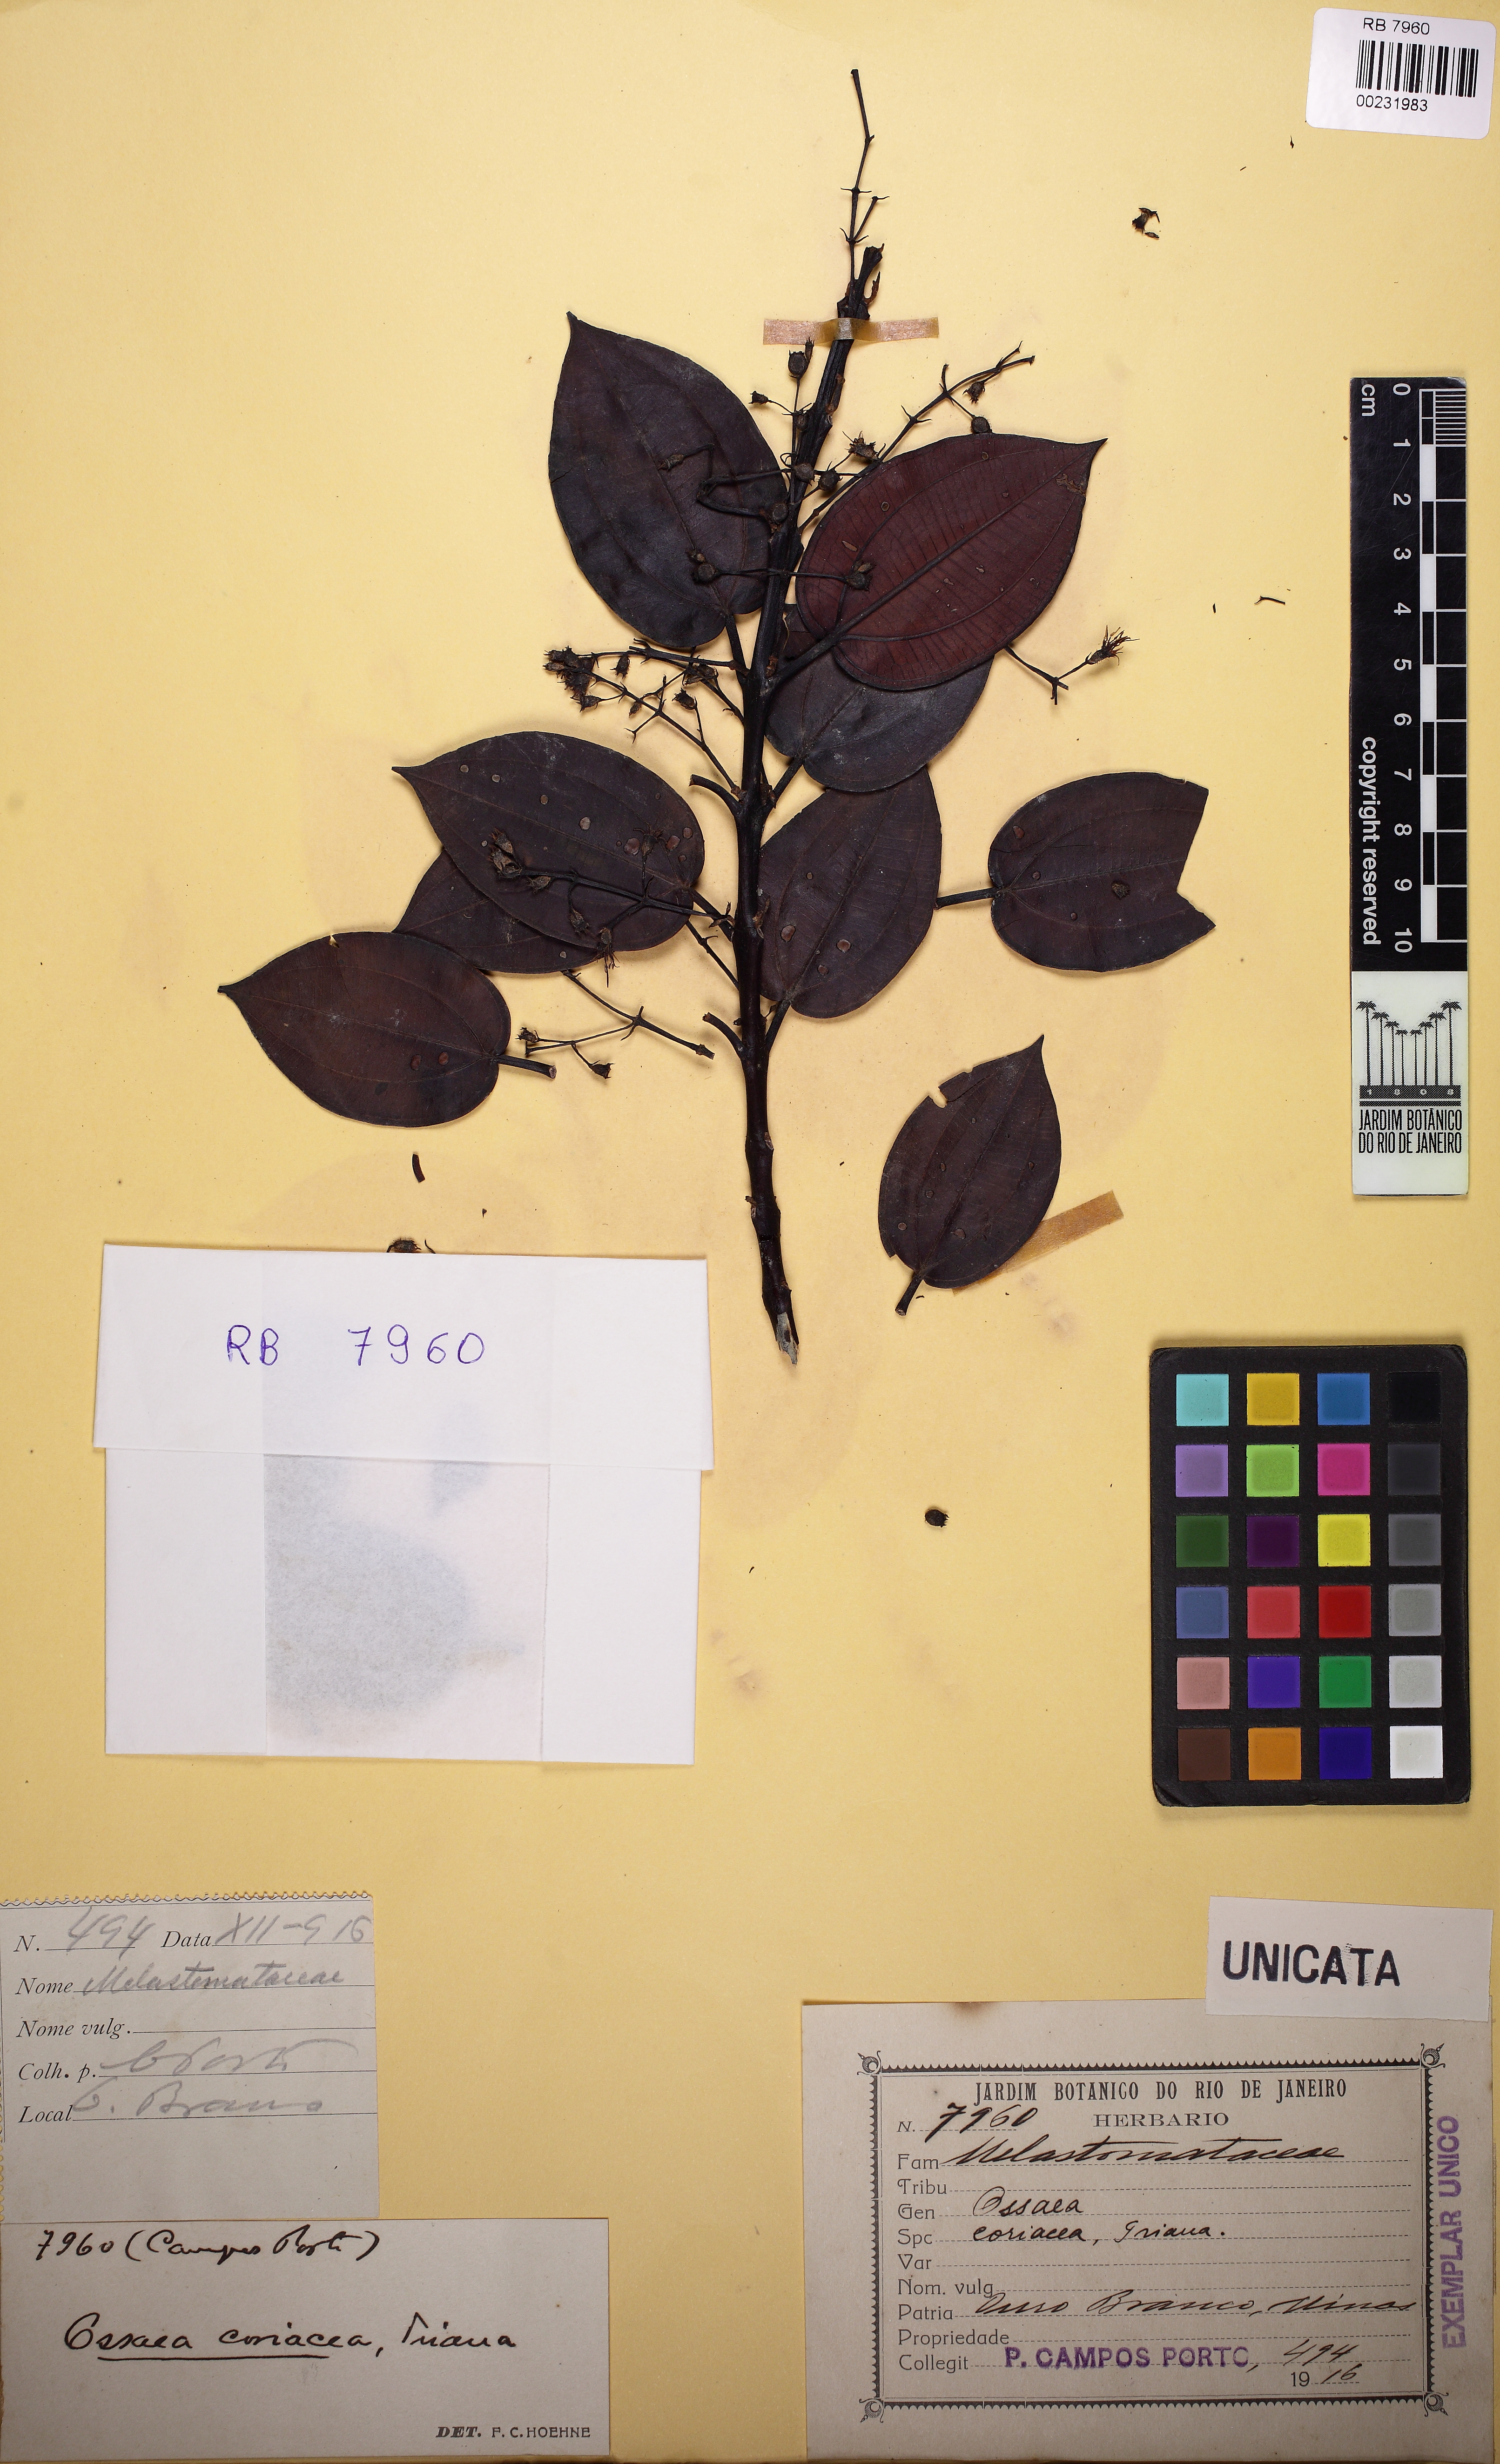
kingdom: Plantae
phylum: Tracheophyta
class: Magnoliopsida
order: Myrtales
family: Melastomataceae
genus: Miconia
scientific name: Miconia leabiscoriacea
